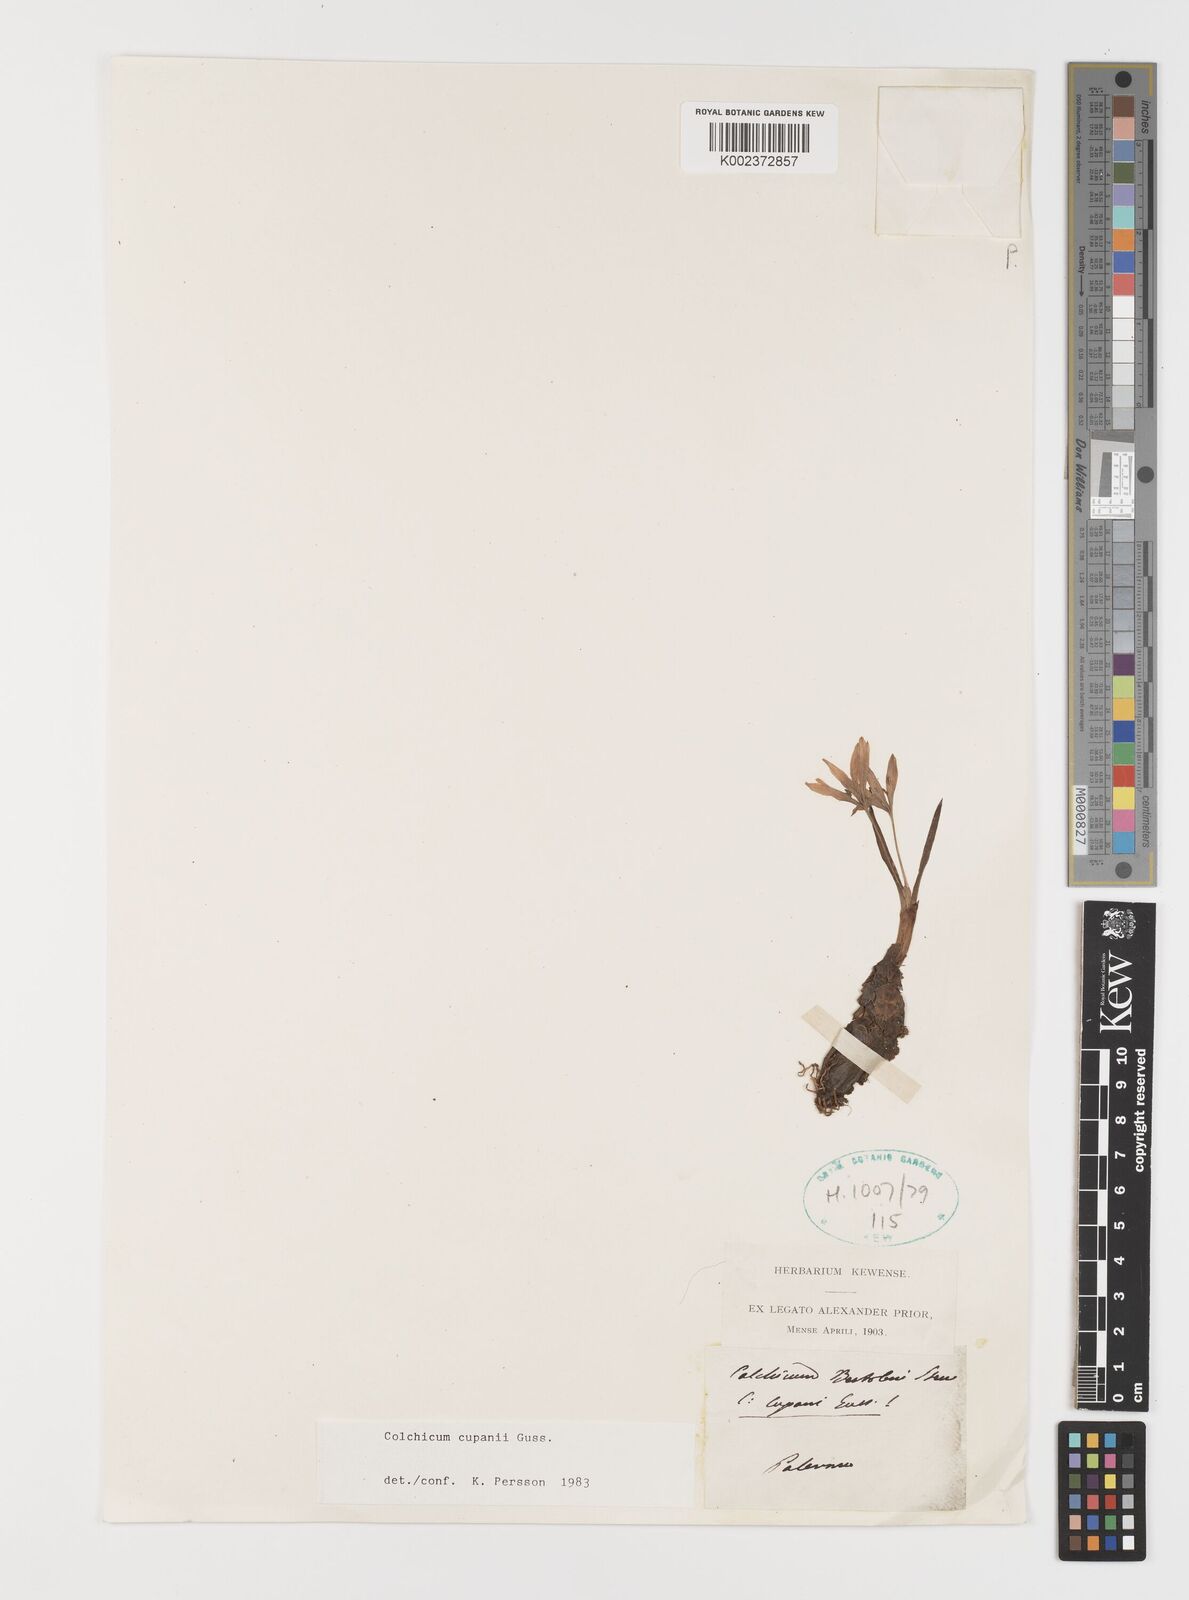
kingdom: Plantae
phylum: Tracheophyta
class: Liliopsida
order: Liliales
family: Colchicaceae
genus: Colchicum
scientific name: Colchicum cupanii
